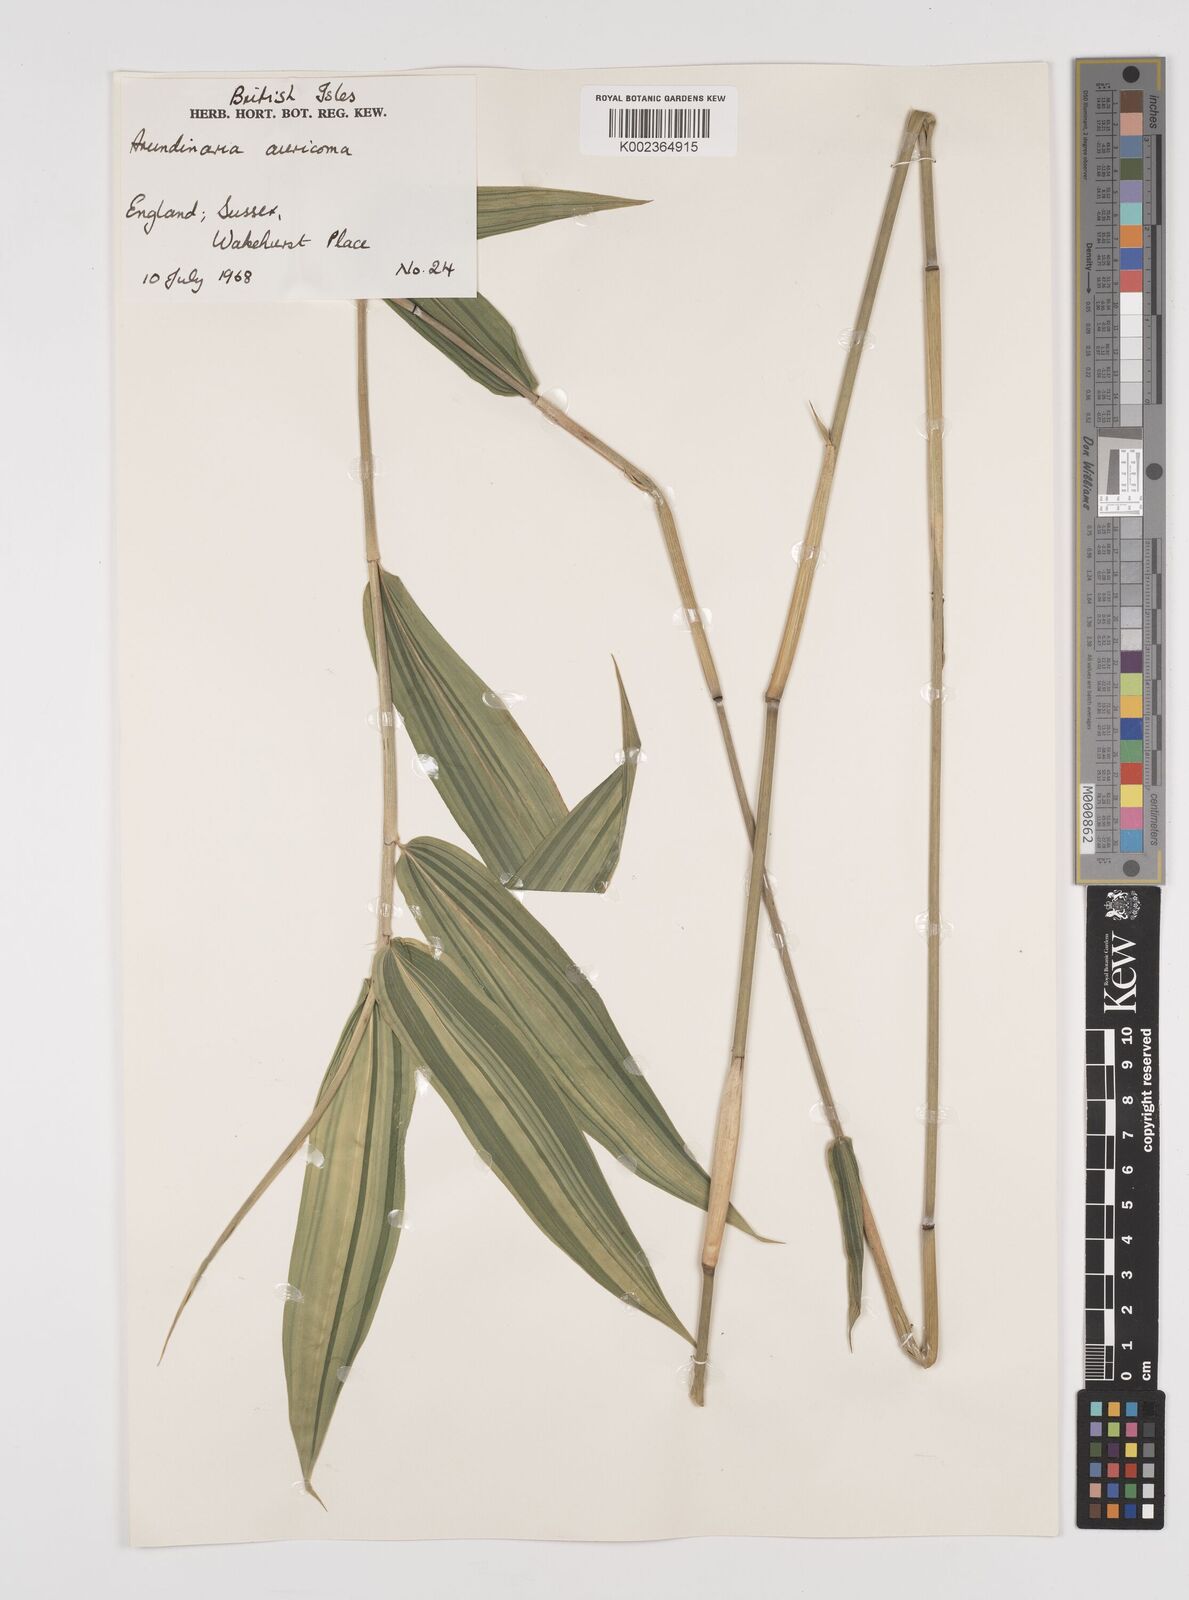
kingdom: Plantae
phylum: Tracheophyta
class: Liliopsida
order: Poales
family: Poaceae
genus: Pleioblastus
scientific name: Pleioblastus viridistriatus
